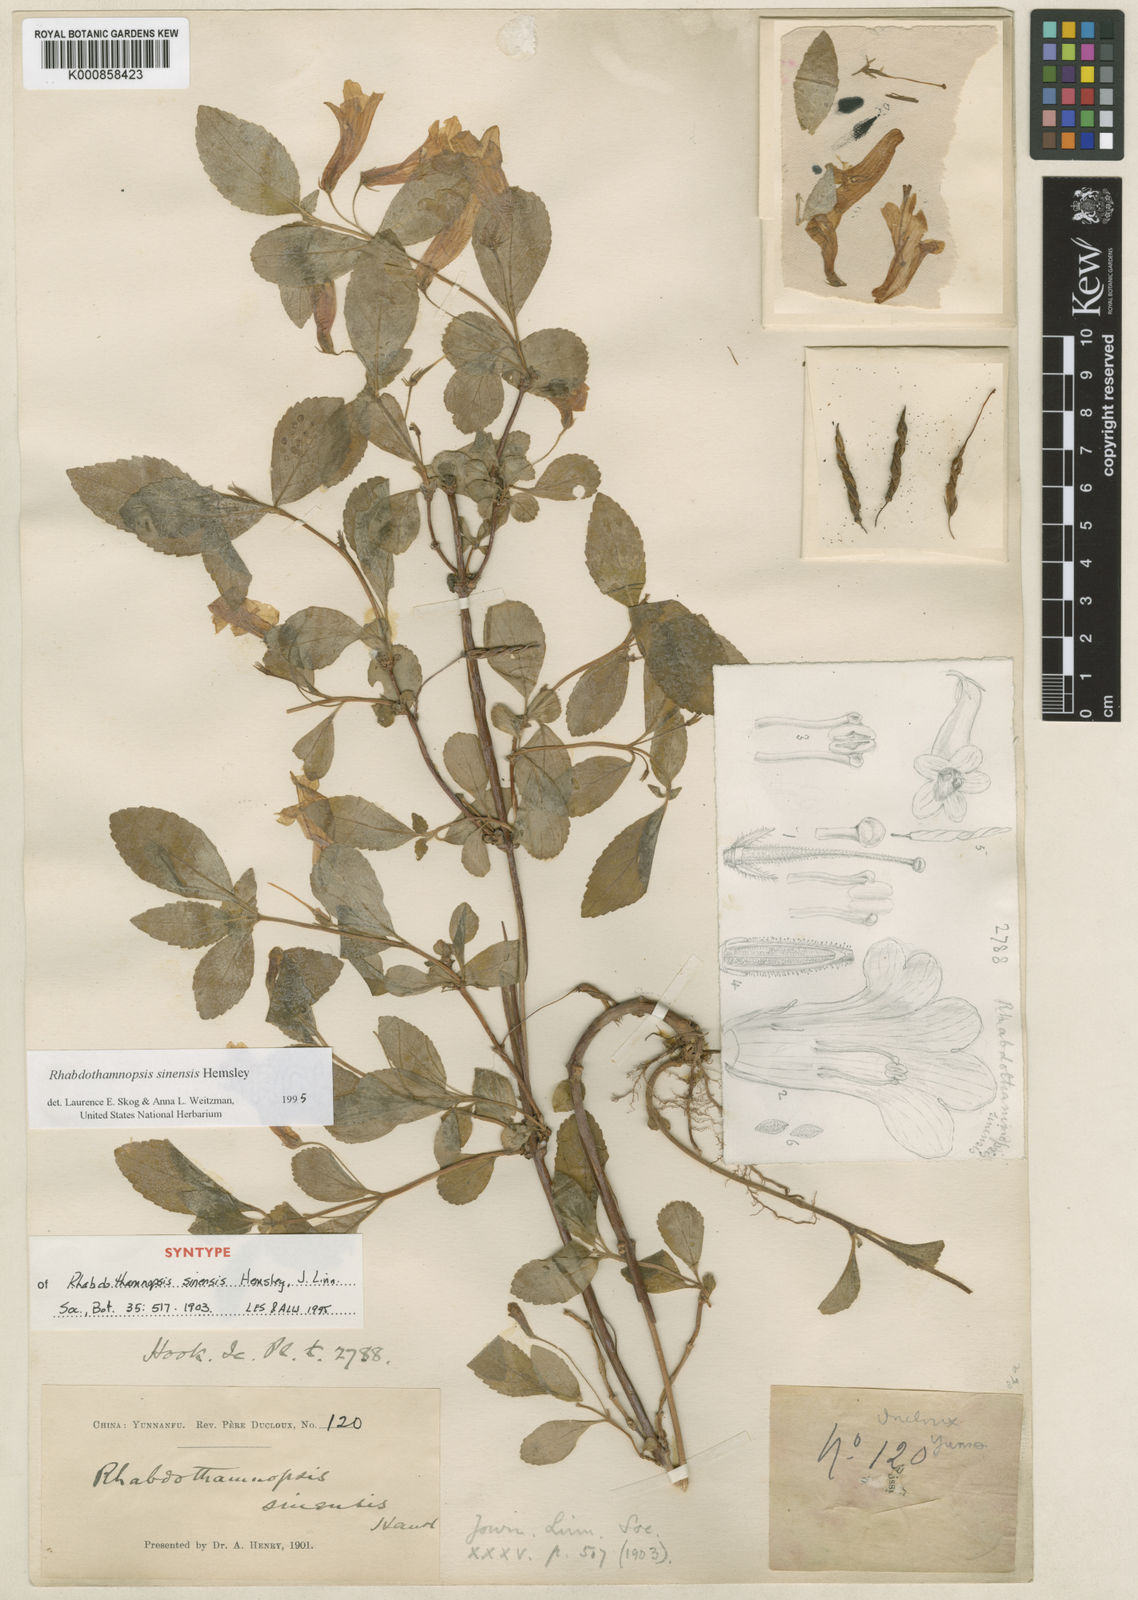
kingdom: Plantae
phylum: Tracheophyta
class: Magnoliopsida
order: Lamiales
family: Gesneriaceae
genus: Rhabdothamnopsis
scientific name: Rhabdothamnopsis sinensis
